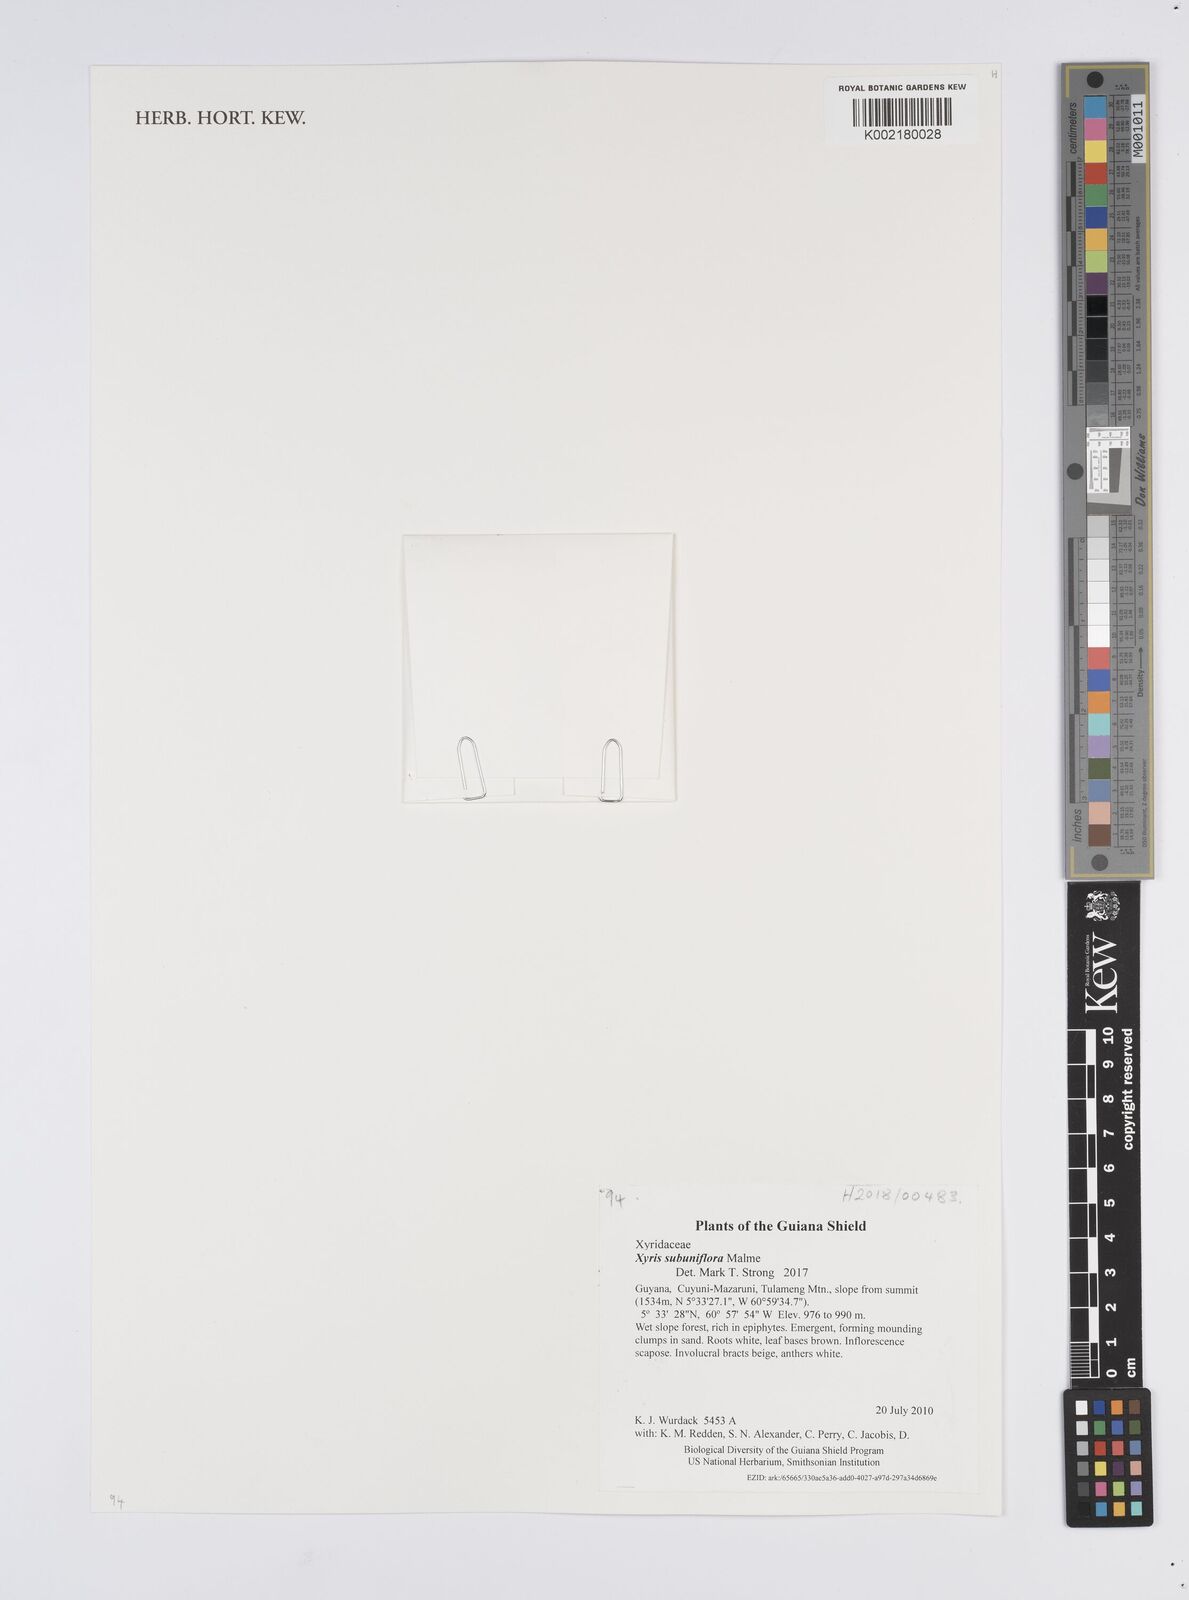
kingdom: Plantae
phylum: Tracheophyta
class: Liliopsida
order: Poales
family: Xyridaceae
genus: Xyris
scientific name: Xyris subuniflora
